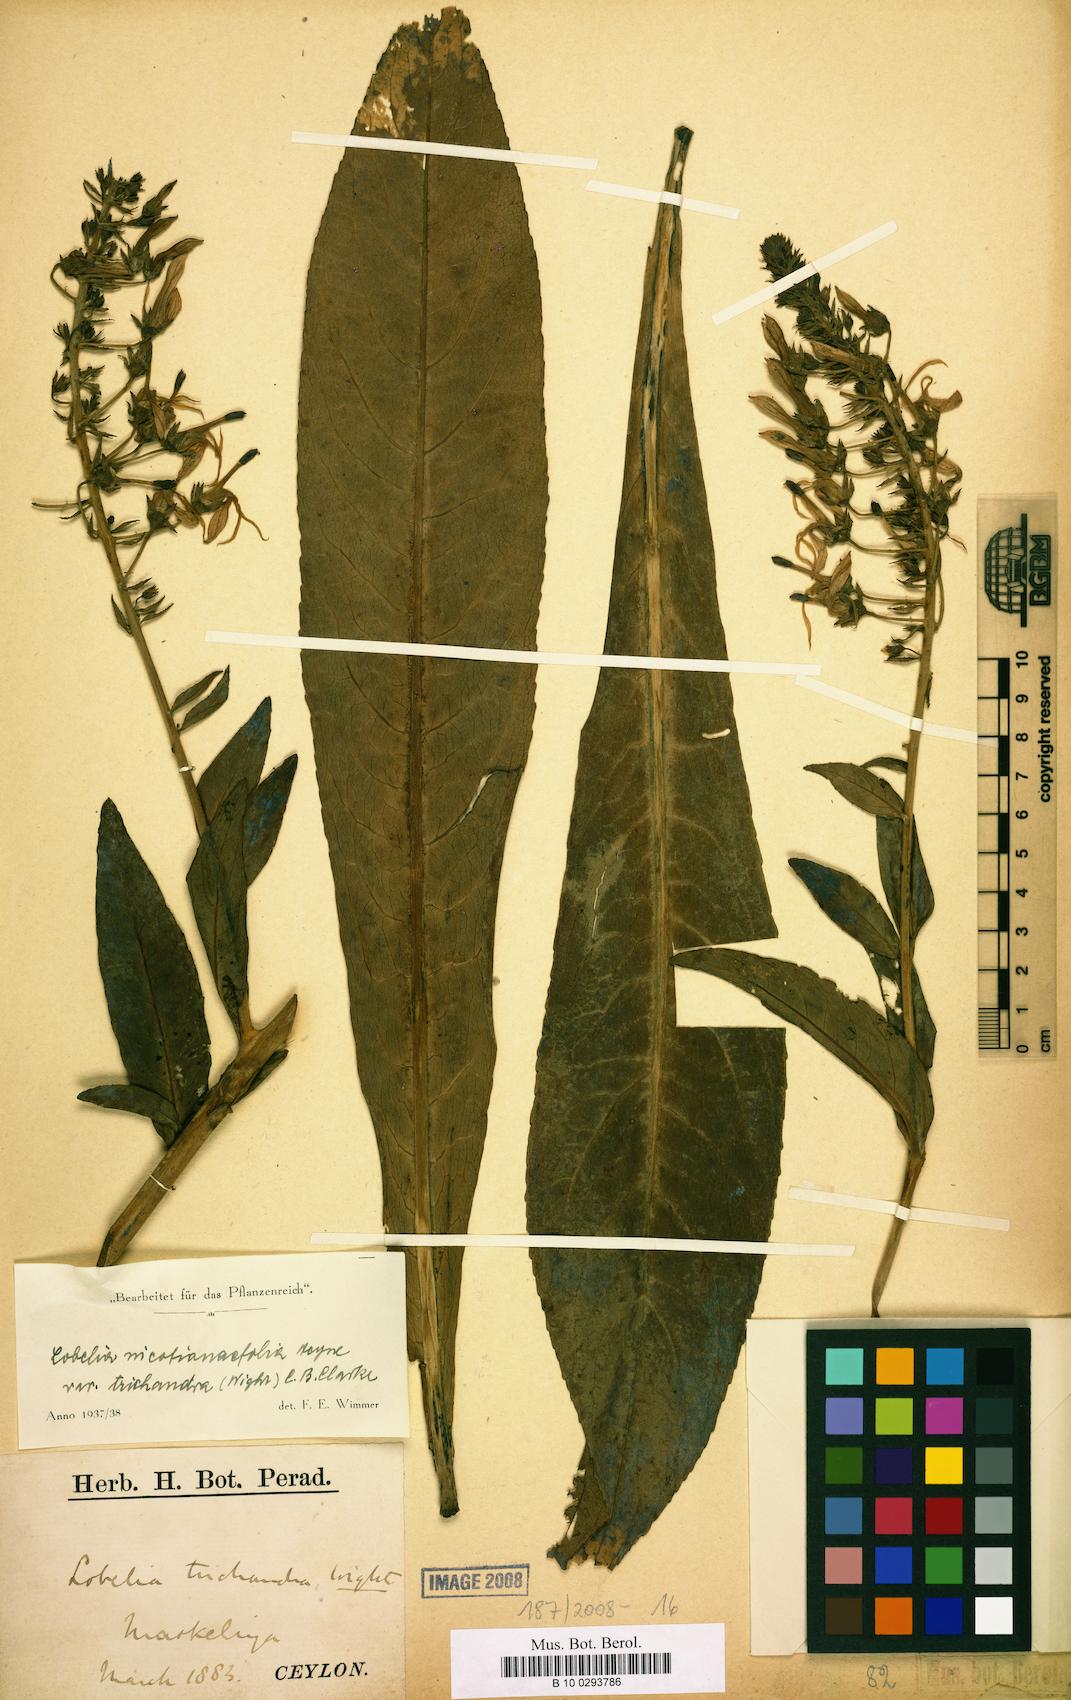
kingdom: Plantae
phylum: Tracheophyta
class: Magnoliopsida
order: Asterales
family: Campanulaceae
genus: Lobelia
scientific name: Lobelia nicotianifolia
